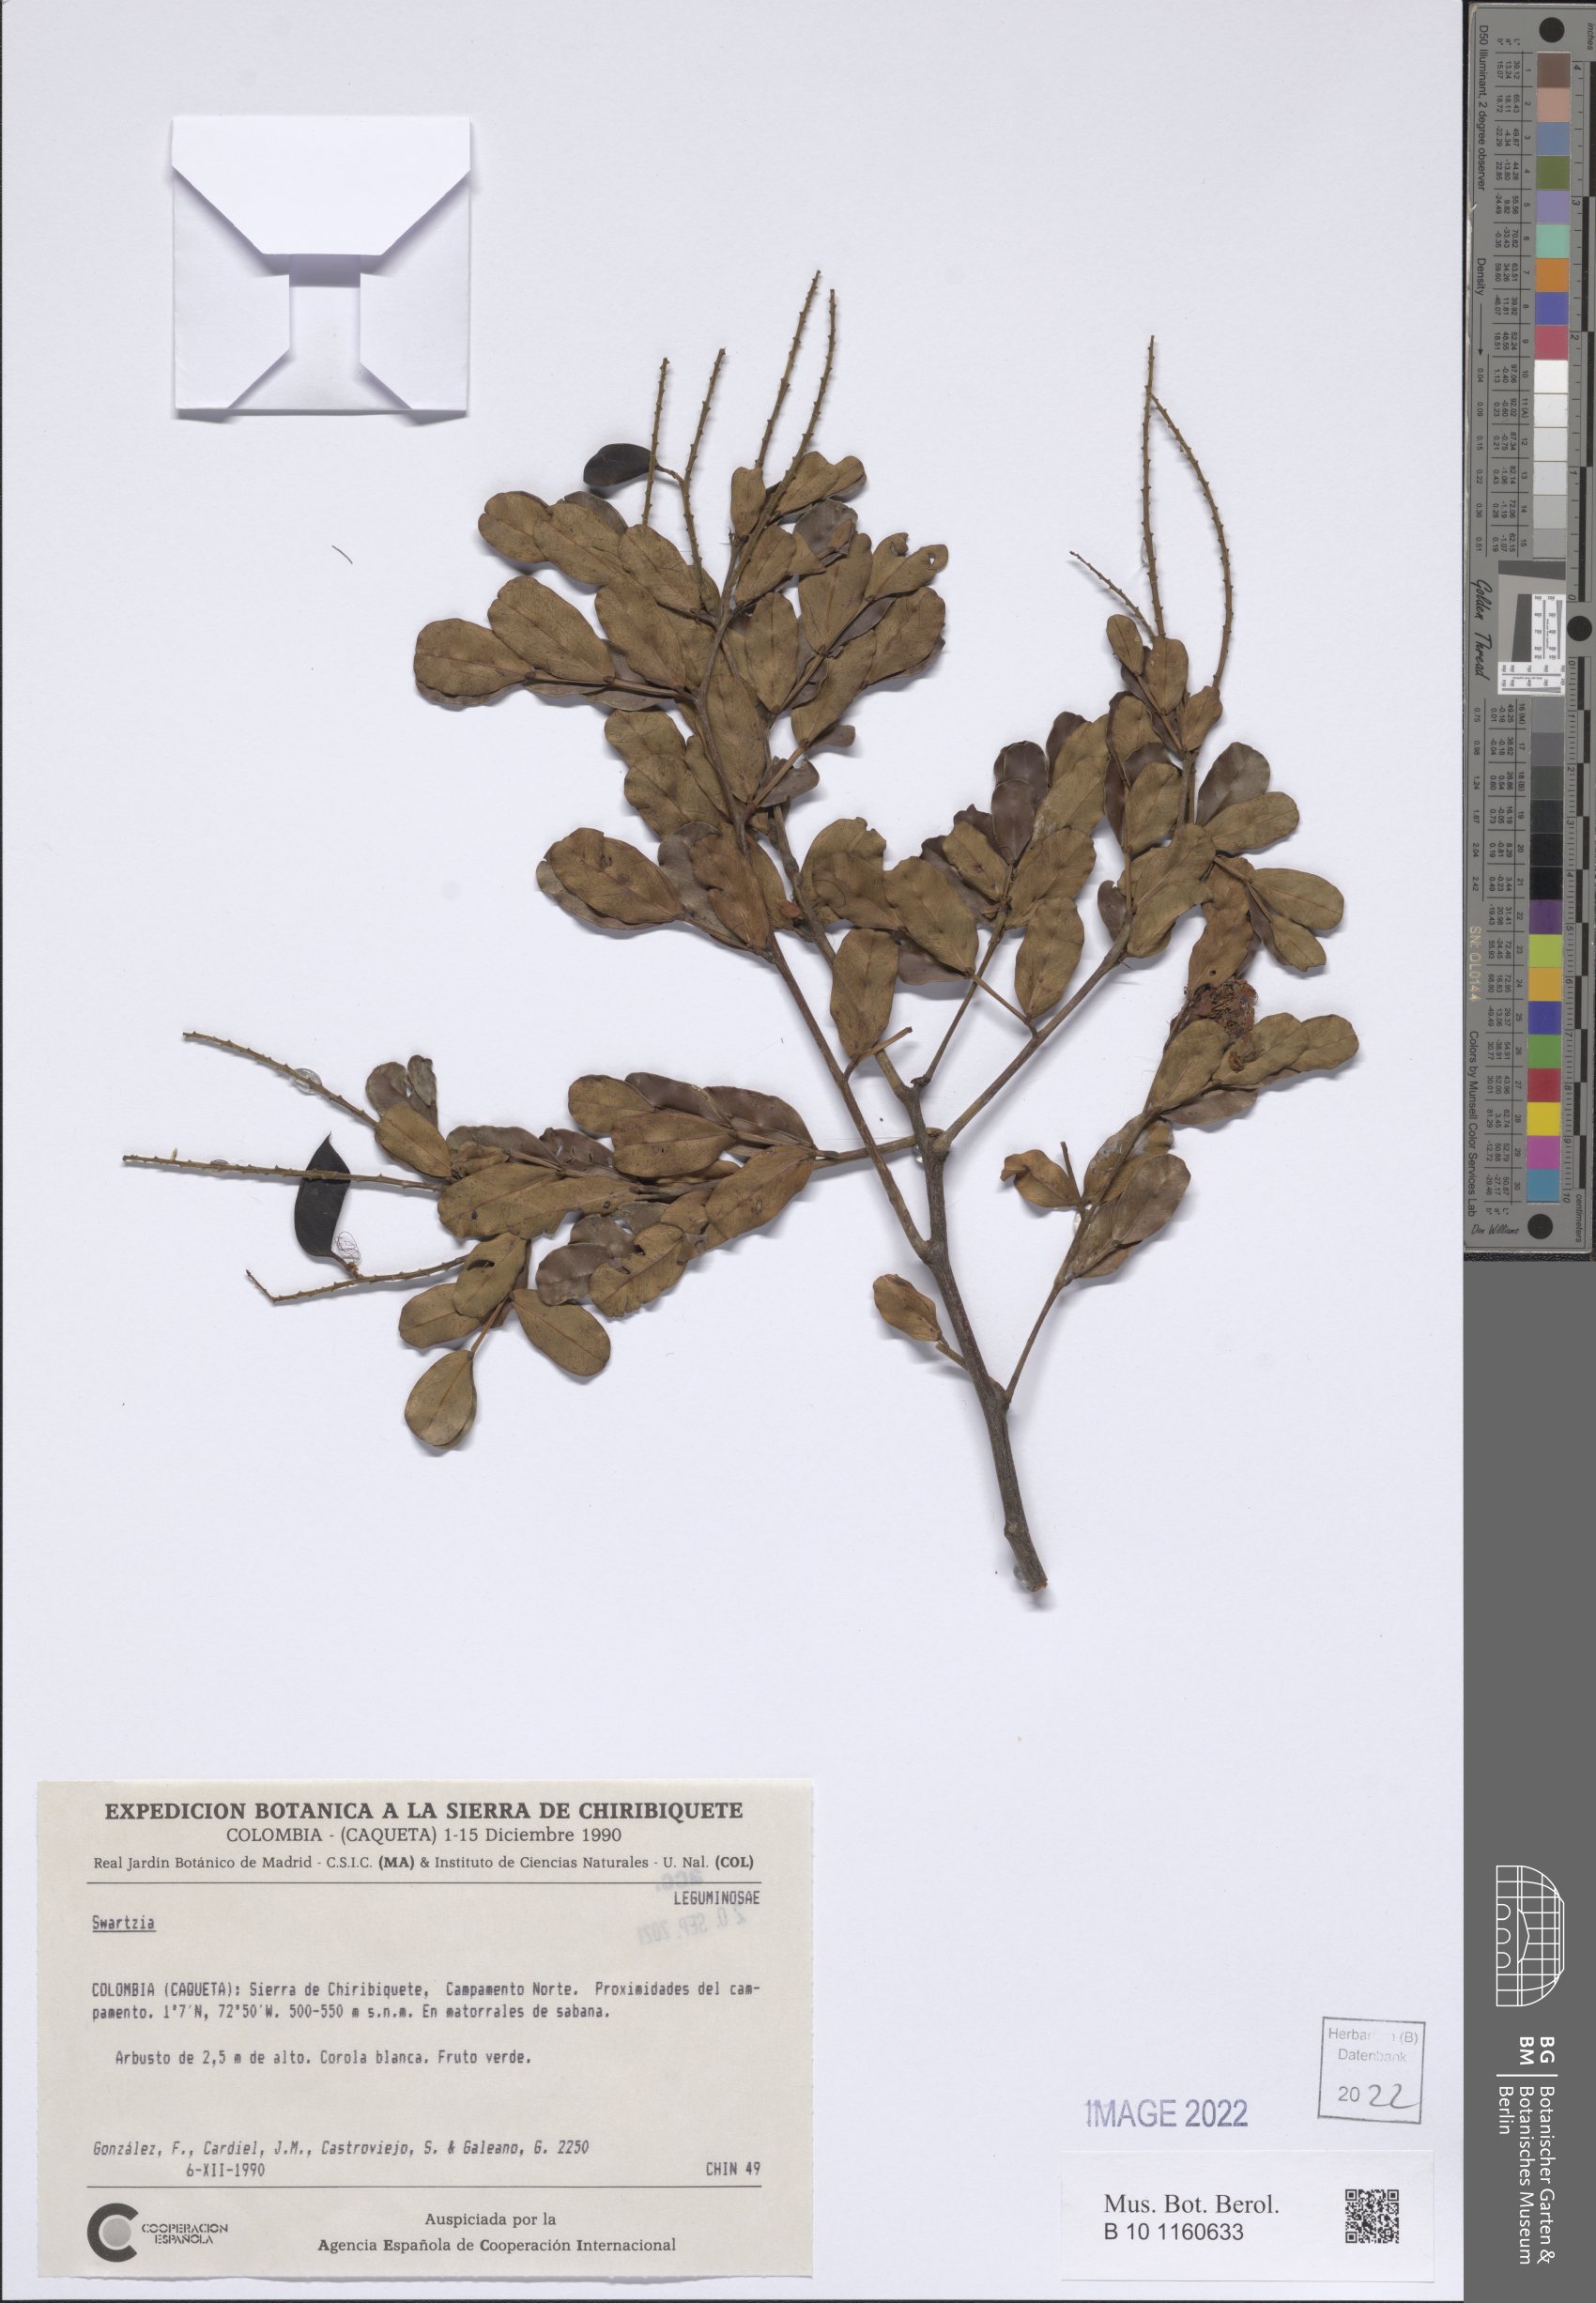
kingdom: Plantae
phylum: Tracheophyta
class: Magnoliopsida
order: Fabales
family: Fabaceae
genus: Swartzia
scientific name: Swartzia
